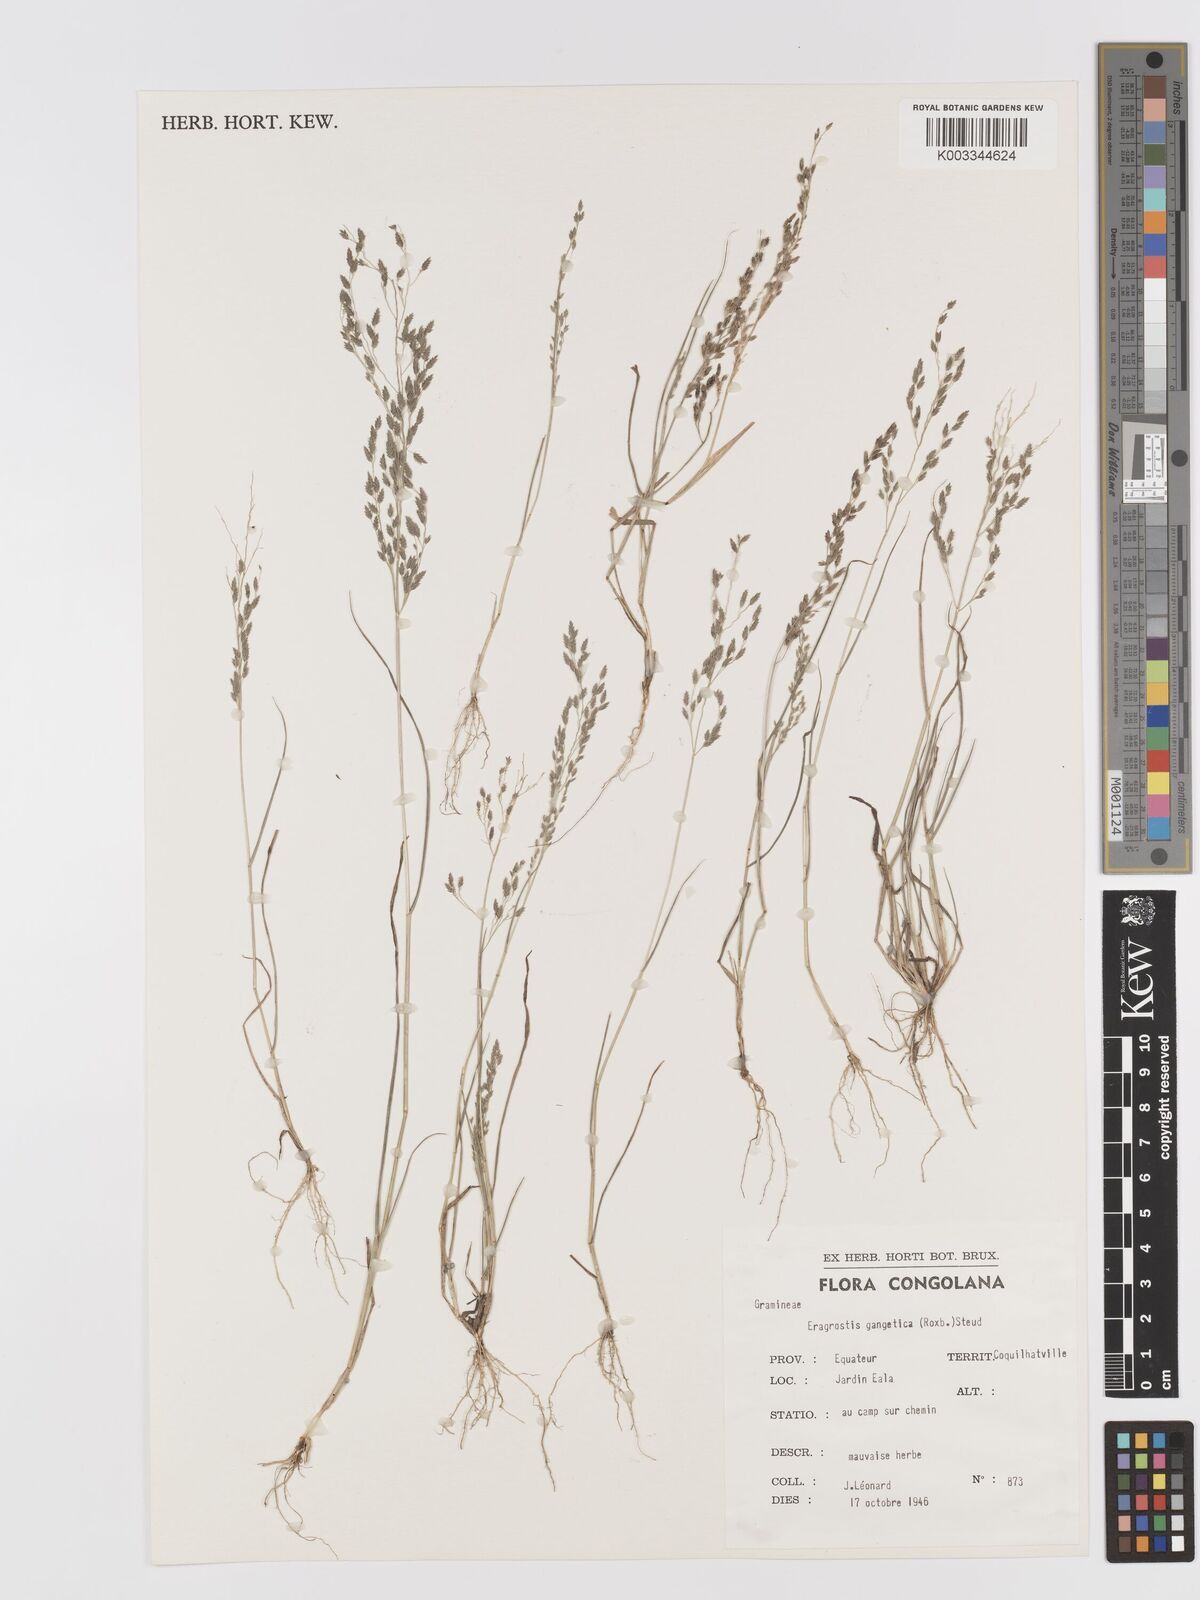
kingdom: Plantae
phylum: Tracheophyta
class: Liliopsida
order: Poales
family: Poaceae
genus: Eragrostis
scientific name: Eragrostis gangetica
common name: Slimflower lovegrass
